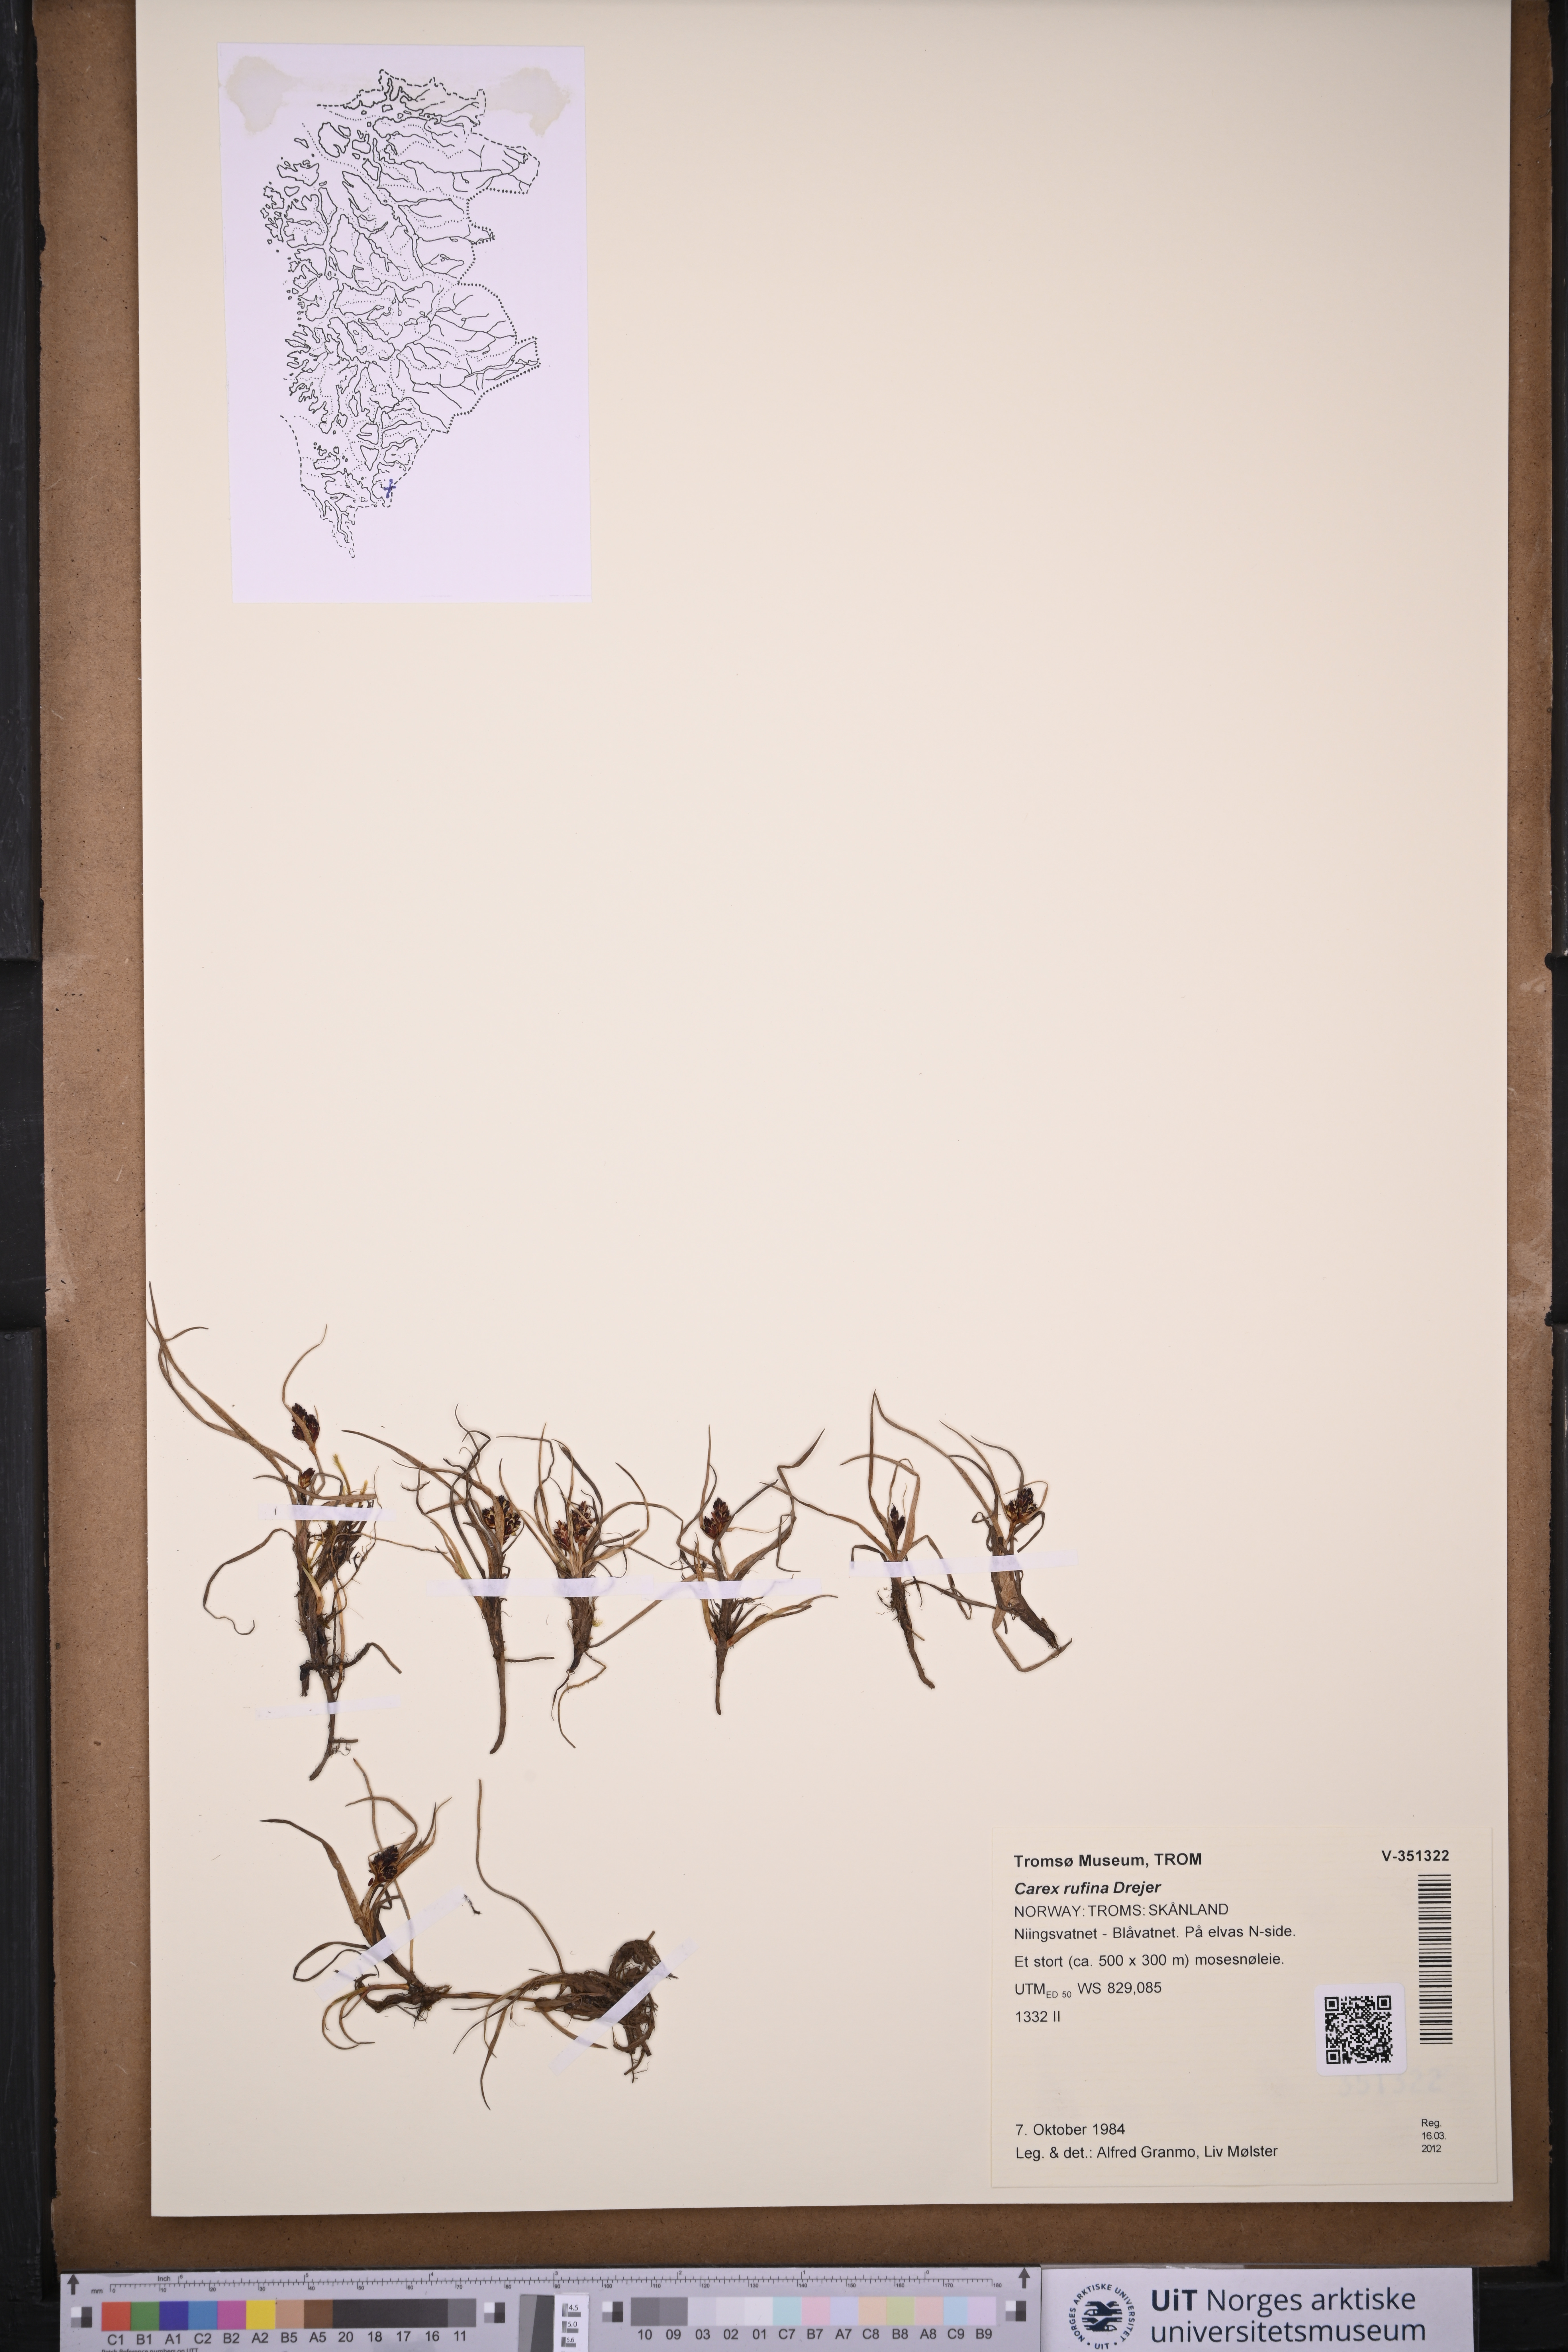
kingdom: Plantae
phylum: Tracheophyta
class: Liliopsida
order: Poales
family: Cyperaceae
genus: Carex
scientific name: Carex rufina
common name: Reddish sedge
